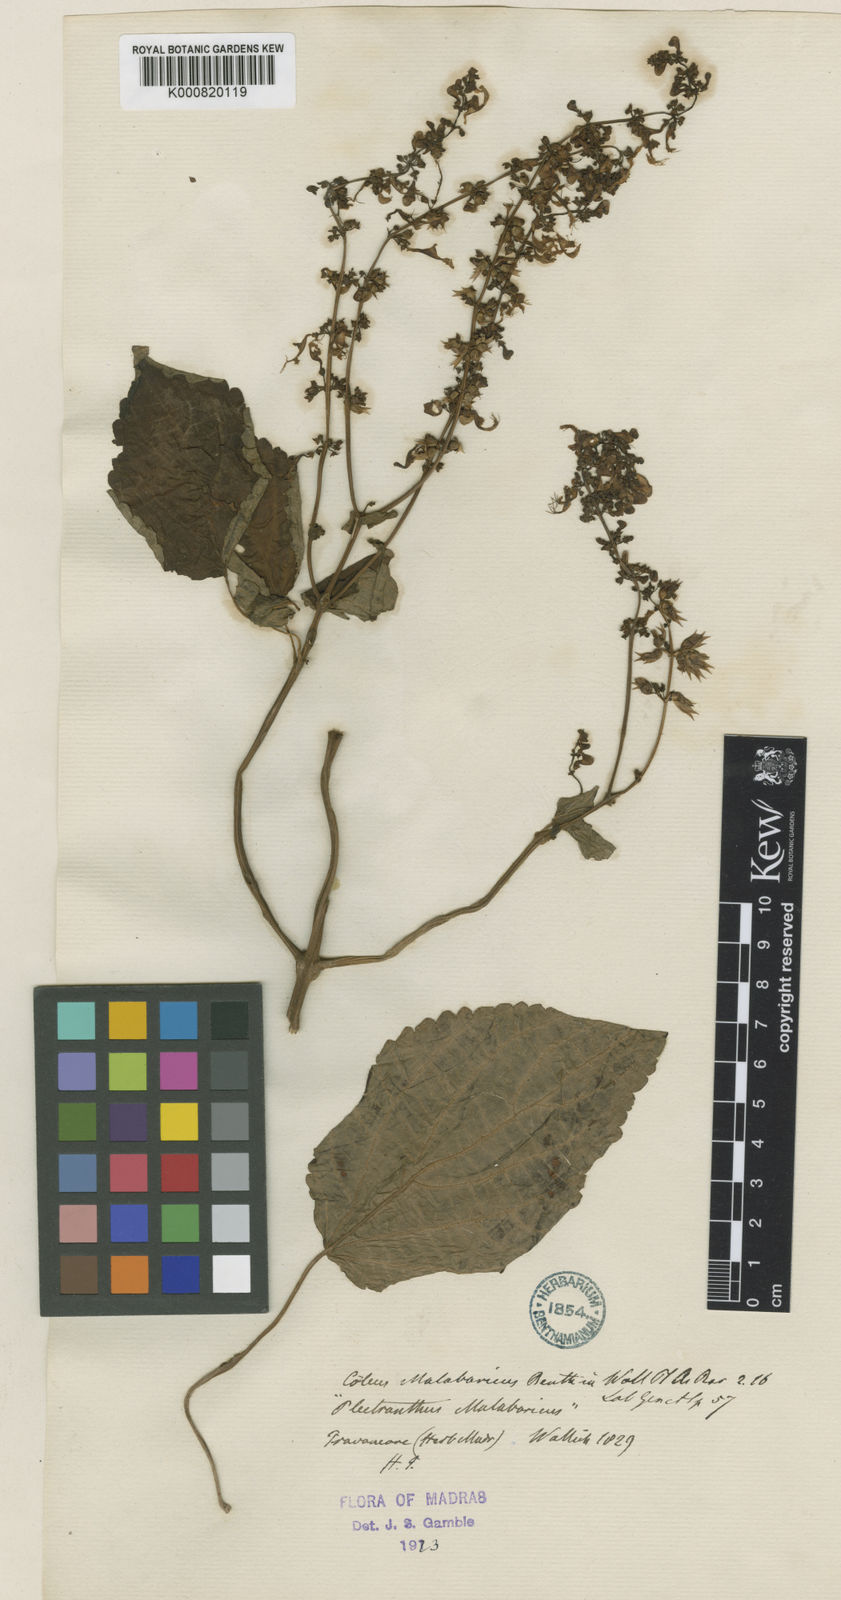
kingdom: Plantae
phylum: Tracheophyta
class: Magnoliopsida
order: Lamiales
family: Lamiaceae
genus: Coleus
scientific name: Coleus malabaricus
